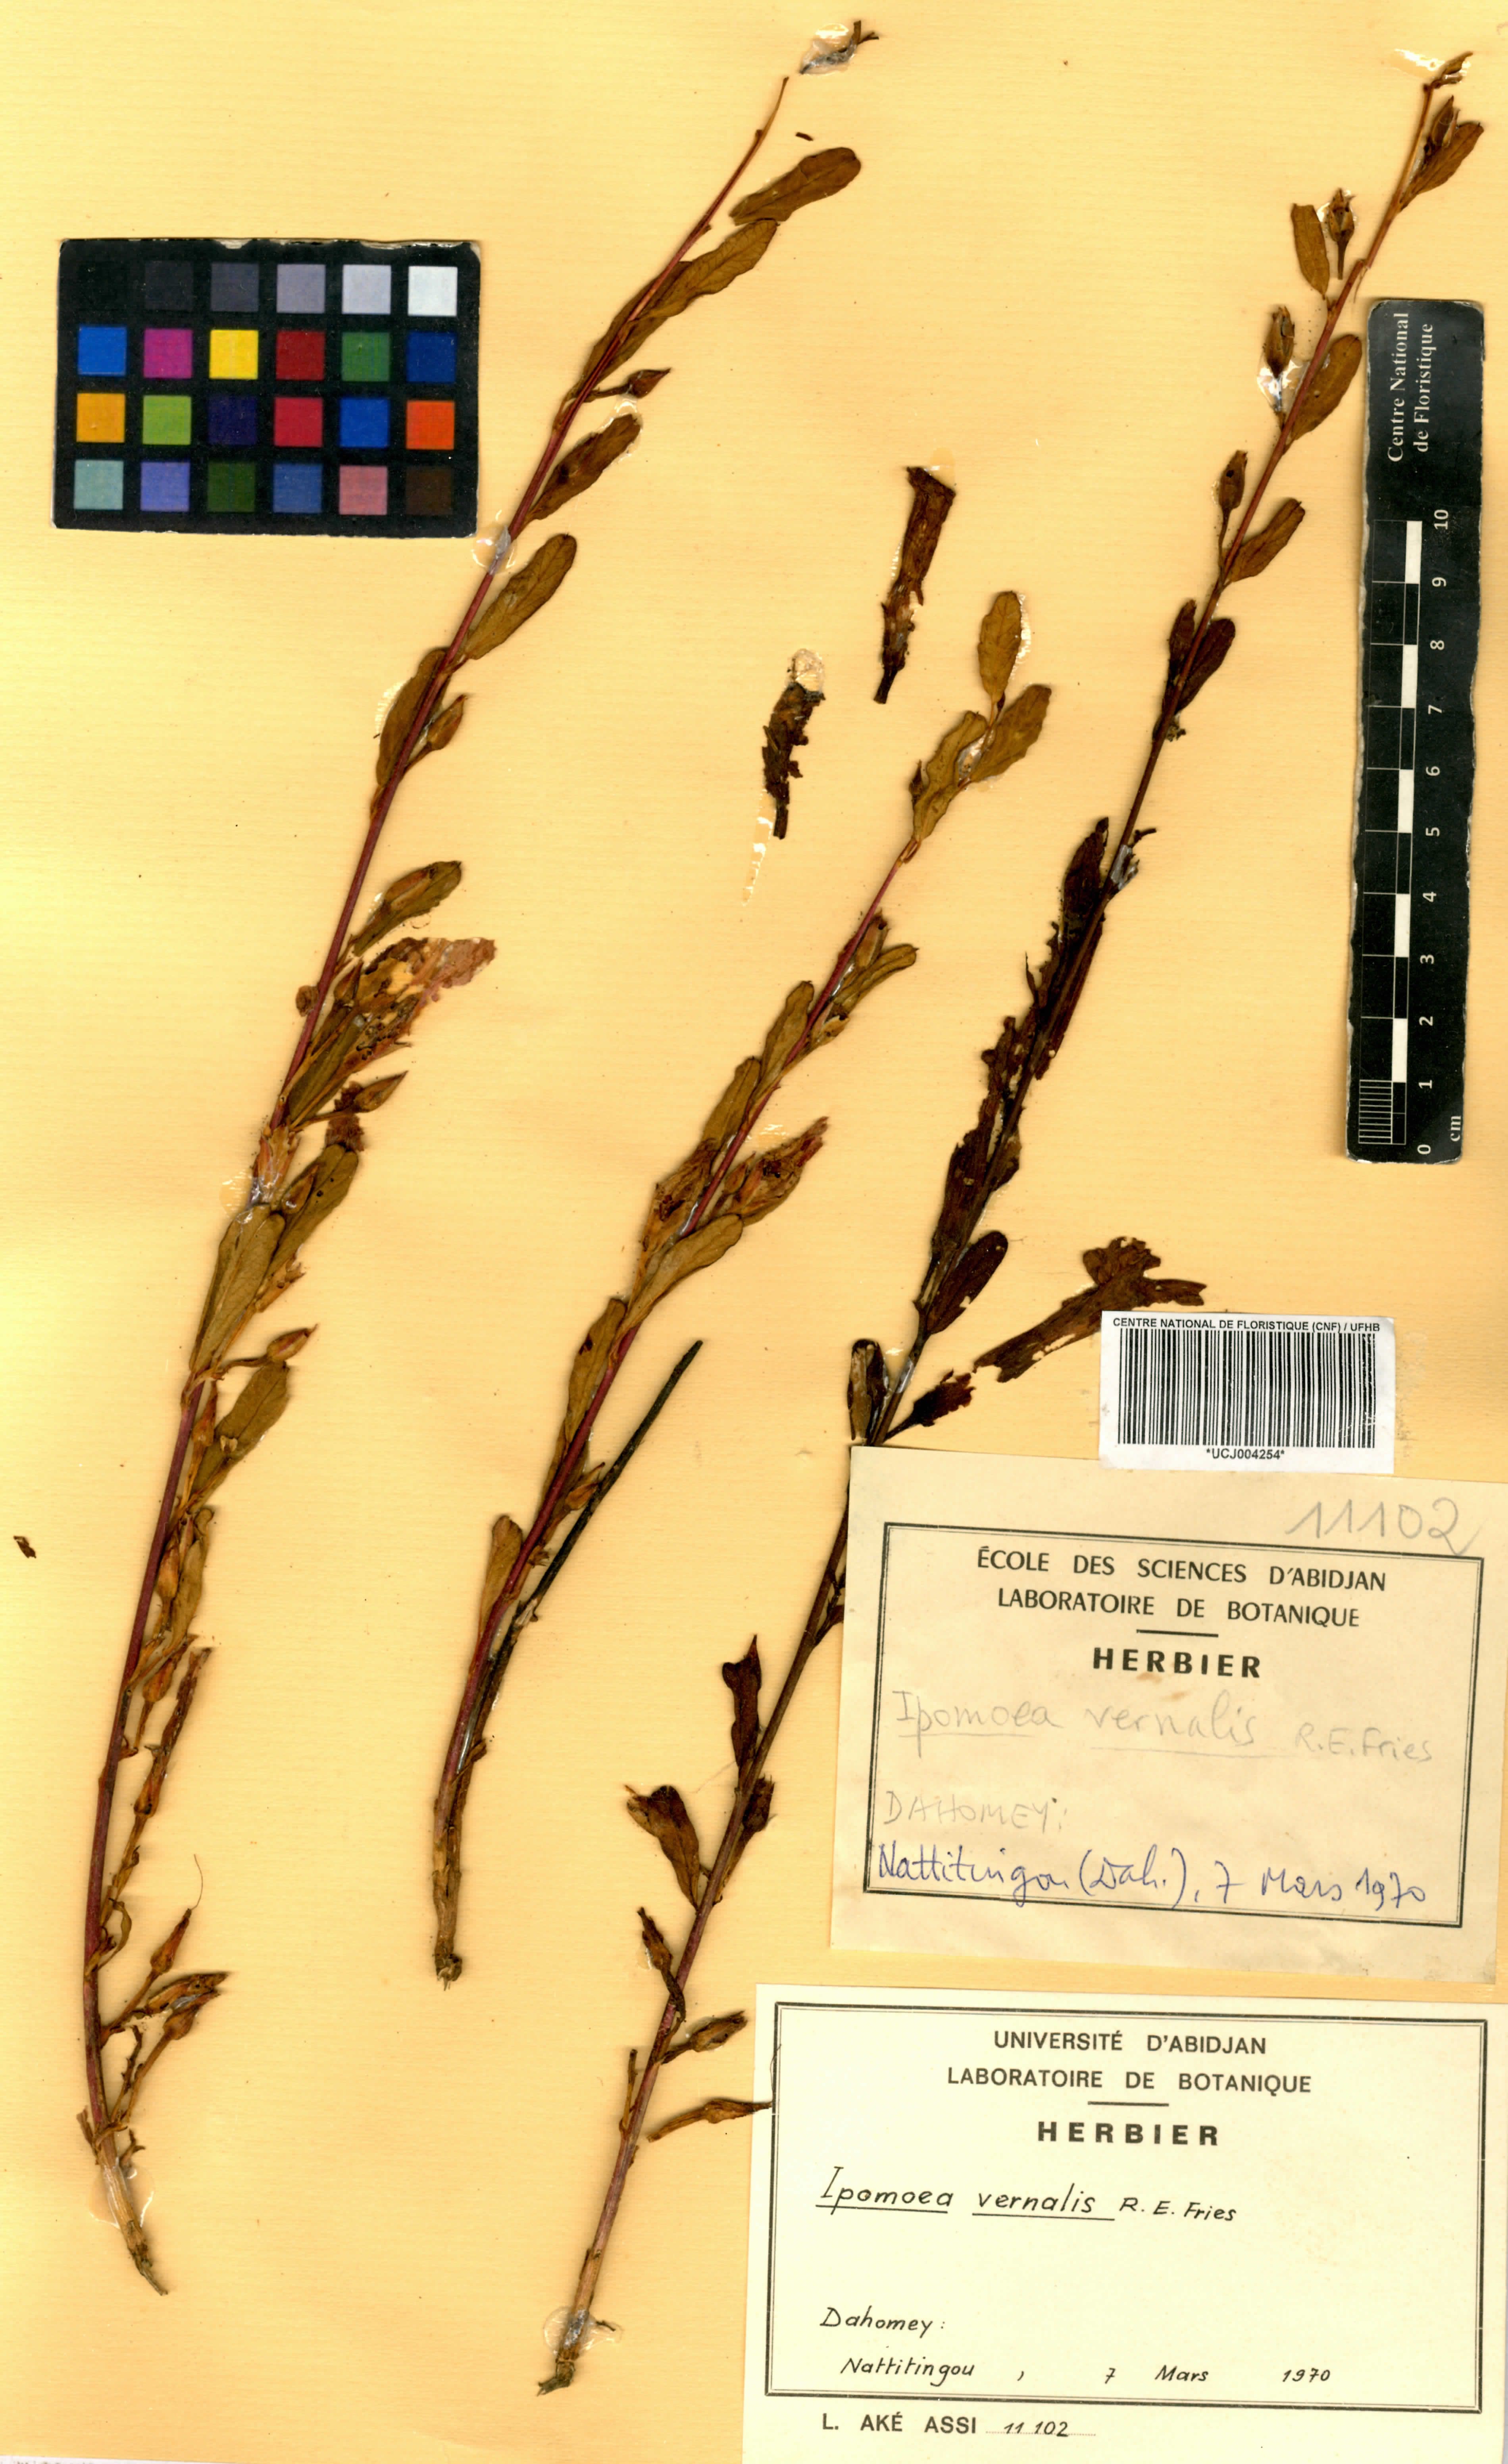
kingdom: Plantae
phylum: Tracheophyta
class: Magnoliopsida
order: Solanales
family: Convolvulaceae
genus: Ipomoea
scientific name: Ipomoea vernalis
